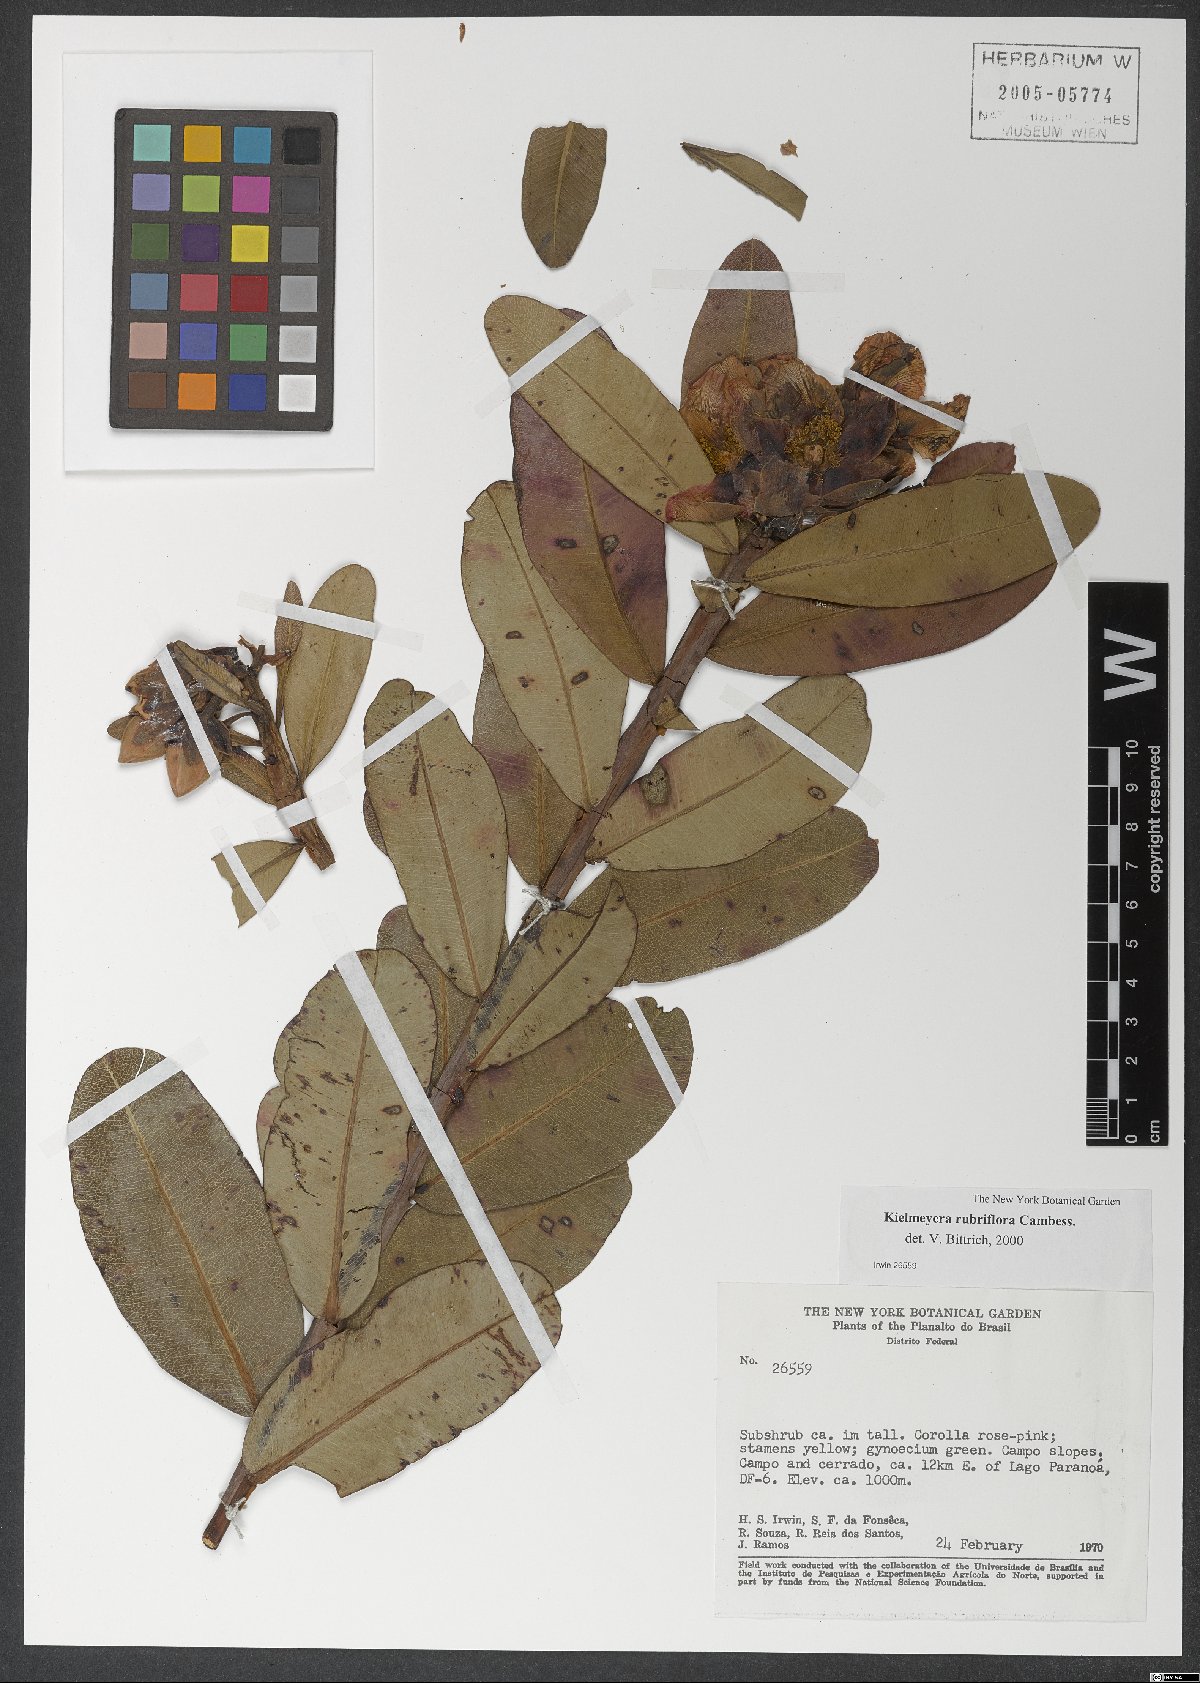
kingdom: Plantae
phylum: Tracheophyta
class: Magnoliopsida
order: Malpighiales
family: Calophyllaceae
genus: Kielmeyera
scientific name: Kielmeyera rubriflora
